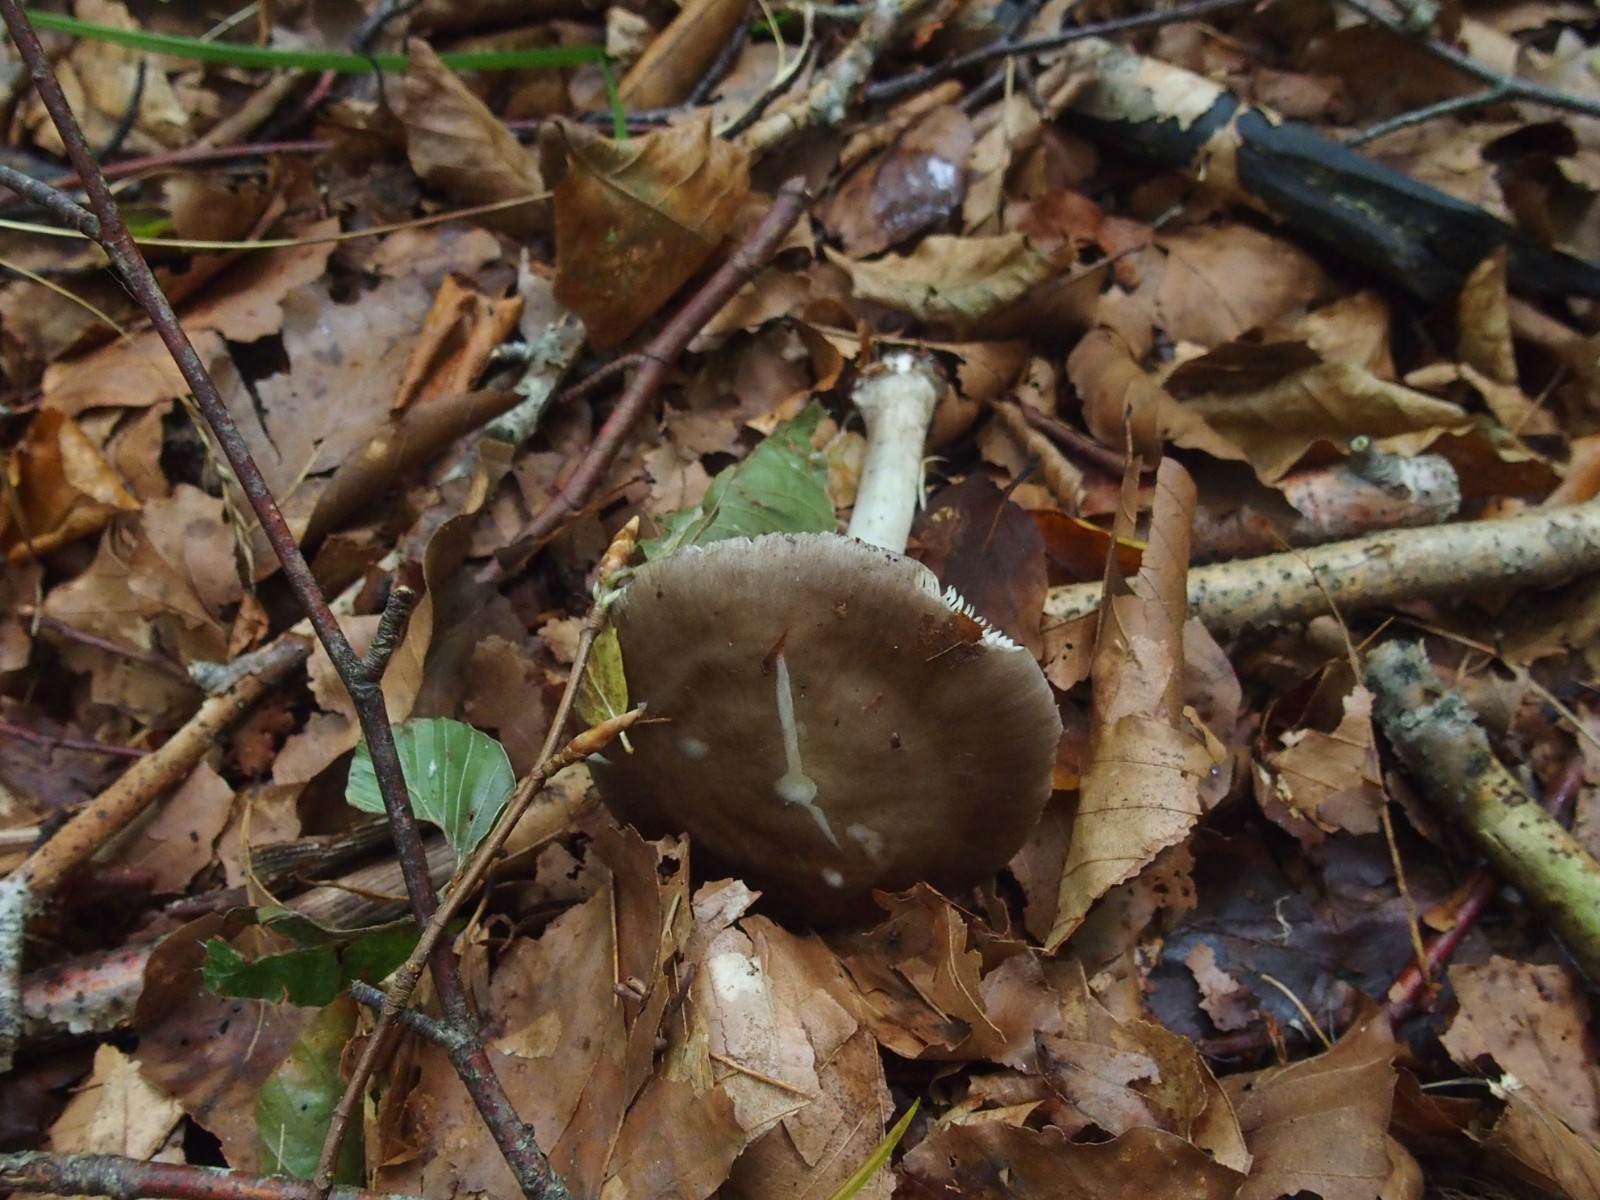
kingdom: Fungi
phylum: Basidiomycota
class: Agaricomycetes
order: Agaricales
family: Pluteaceae
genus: Pluteus
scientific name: Pluteus pouzarianus
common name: plantage-skærmhat
